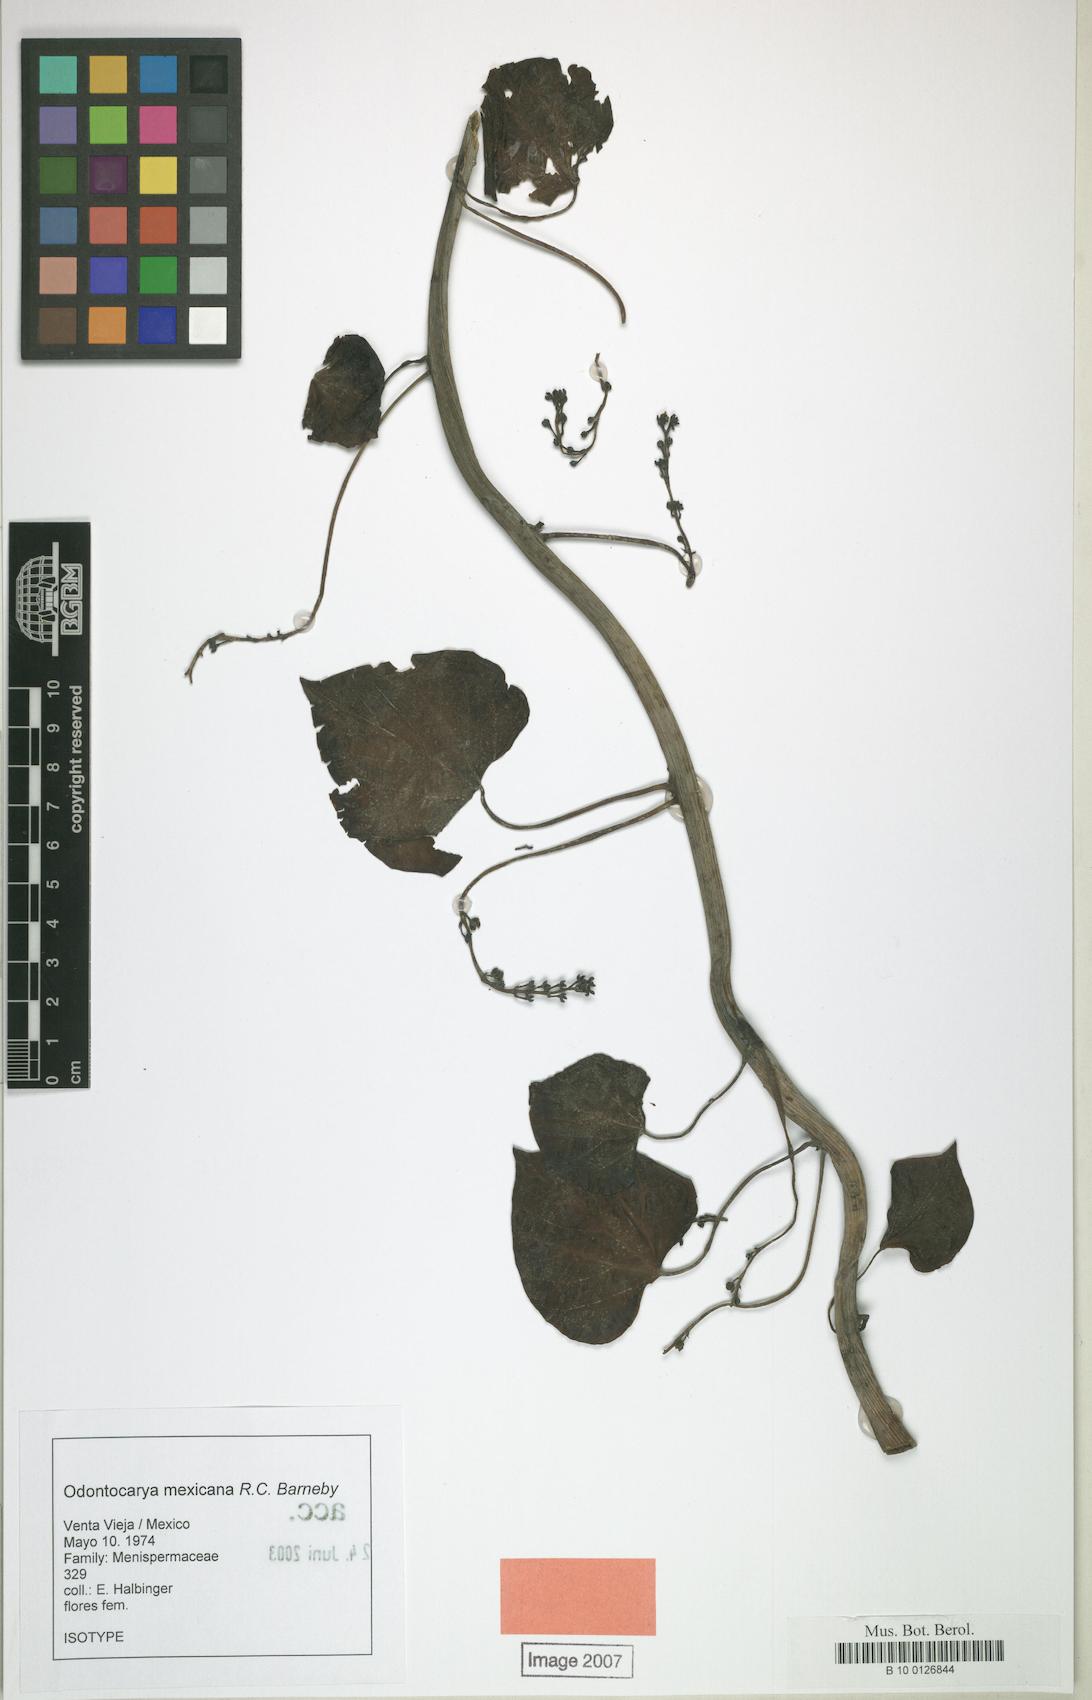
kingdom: Plantae
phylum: Tracheophyta
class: Magnoliopsida
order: Ranunculales
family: Menispermaceae
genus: Odontocarya
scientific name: Odontocarya mexicana
